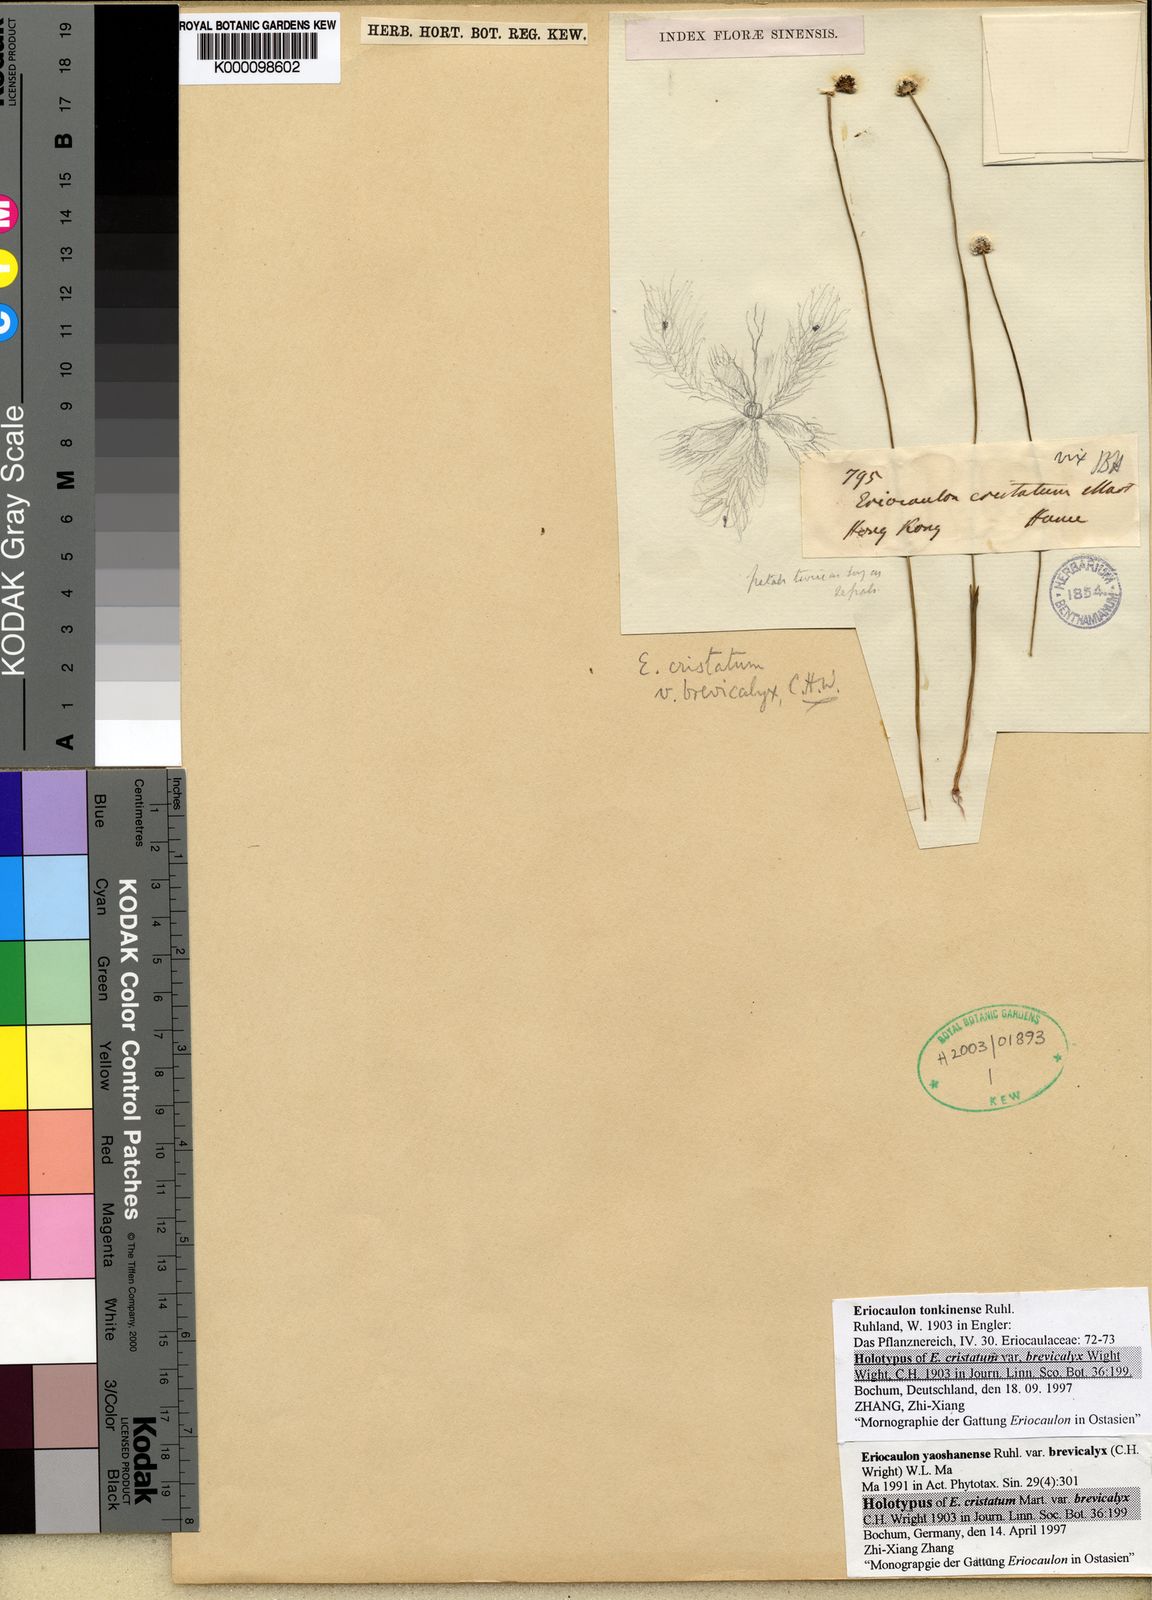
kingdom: Plantae
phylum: Tracheophyta
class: Liliopsida
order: Poales
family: Eriocaulaceae
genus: Eriocaulon
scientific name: Eriocaulon fluviatile
